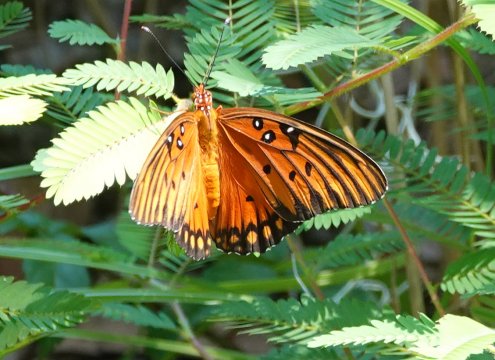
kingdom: Animalia
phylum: Arthropoda
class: Insecta
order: Lepidoptera
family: Nymphalidae
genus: Dione
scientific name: Dione vanillae
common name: Gulf Fritillary
